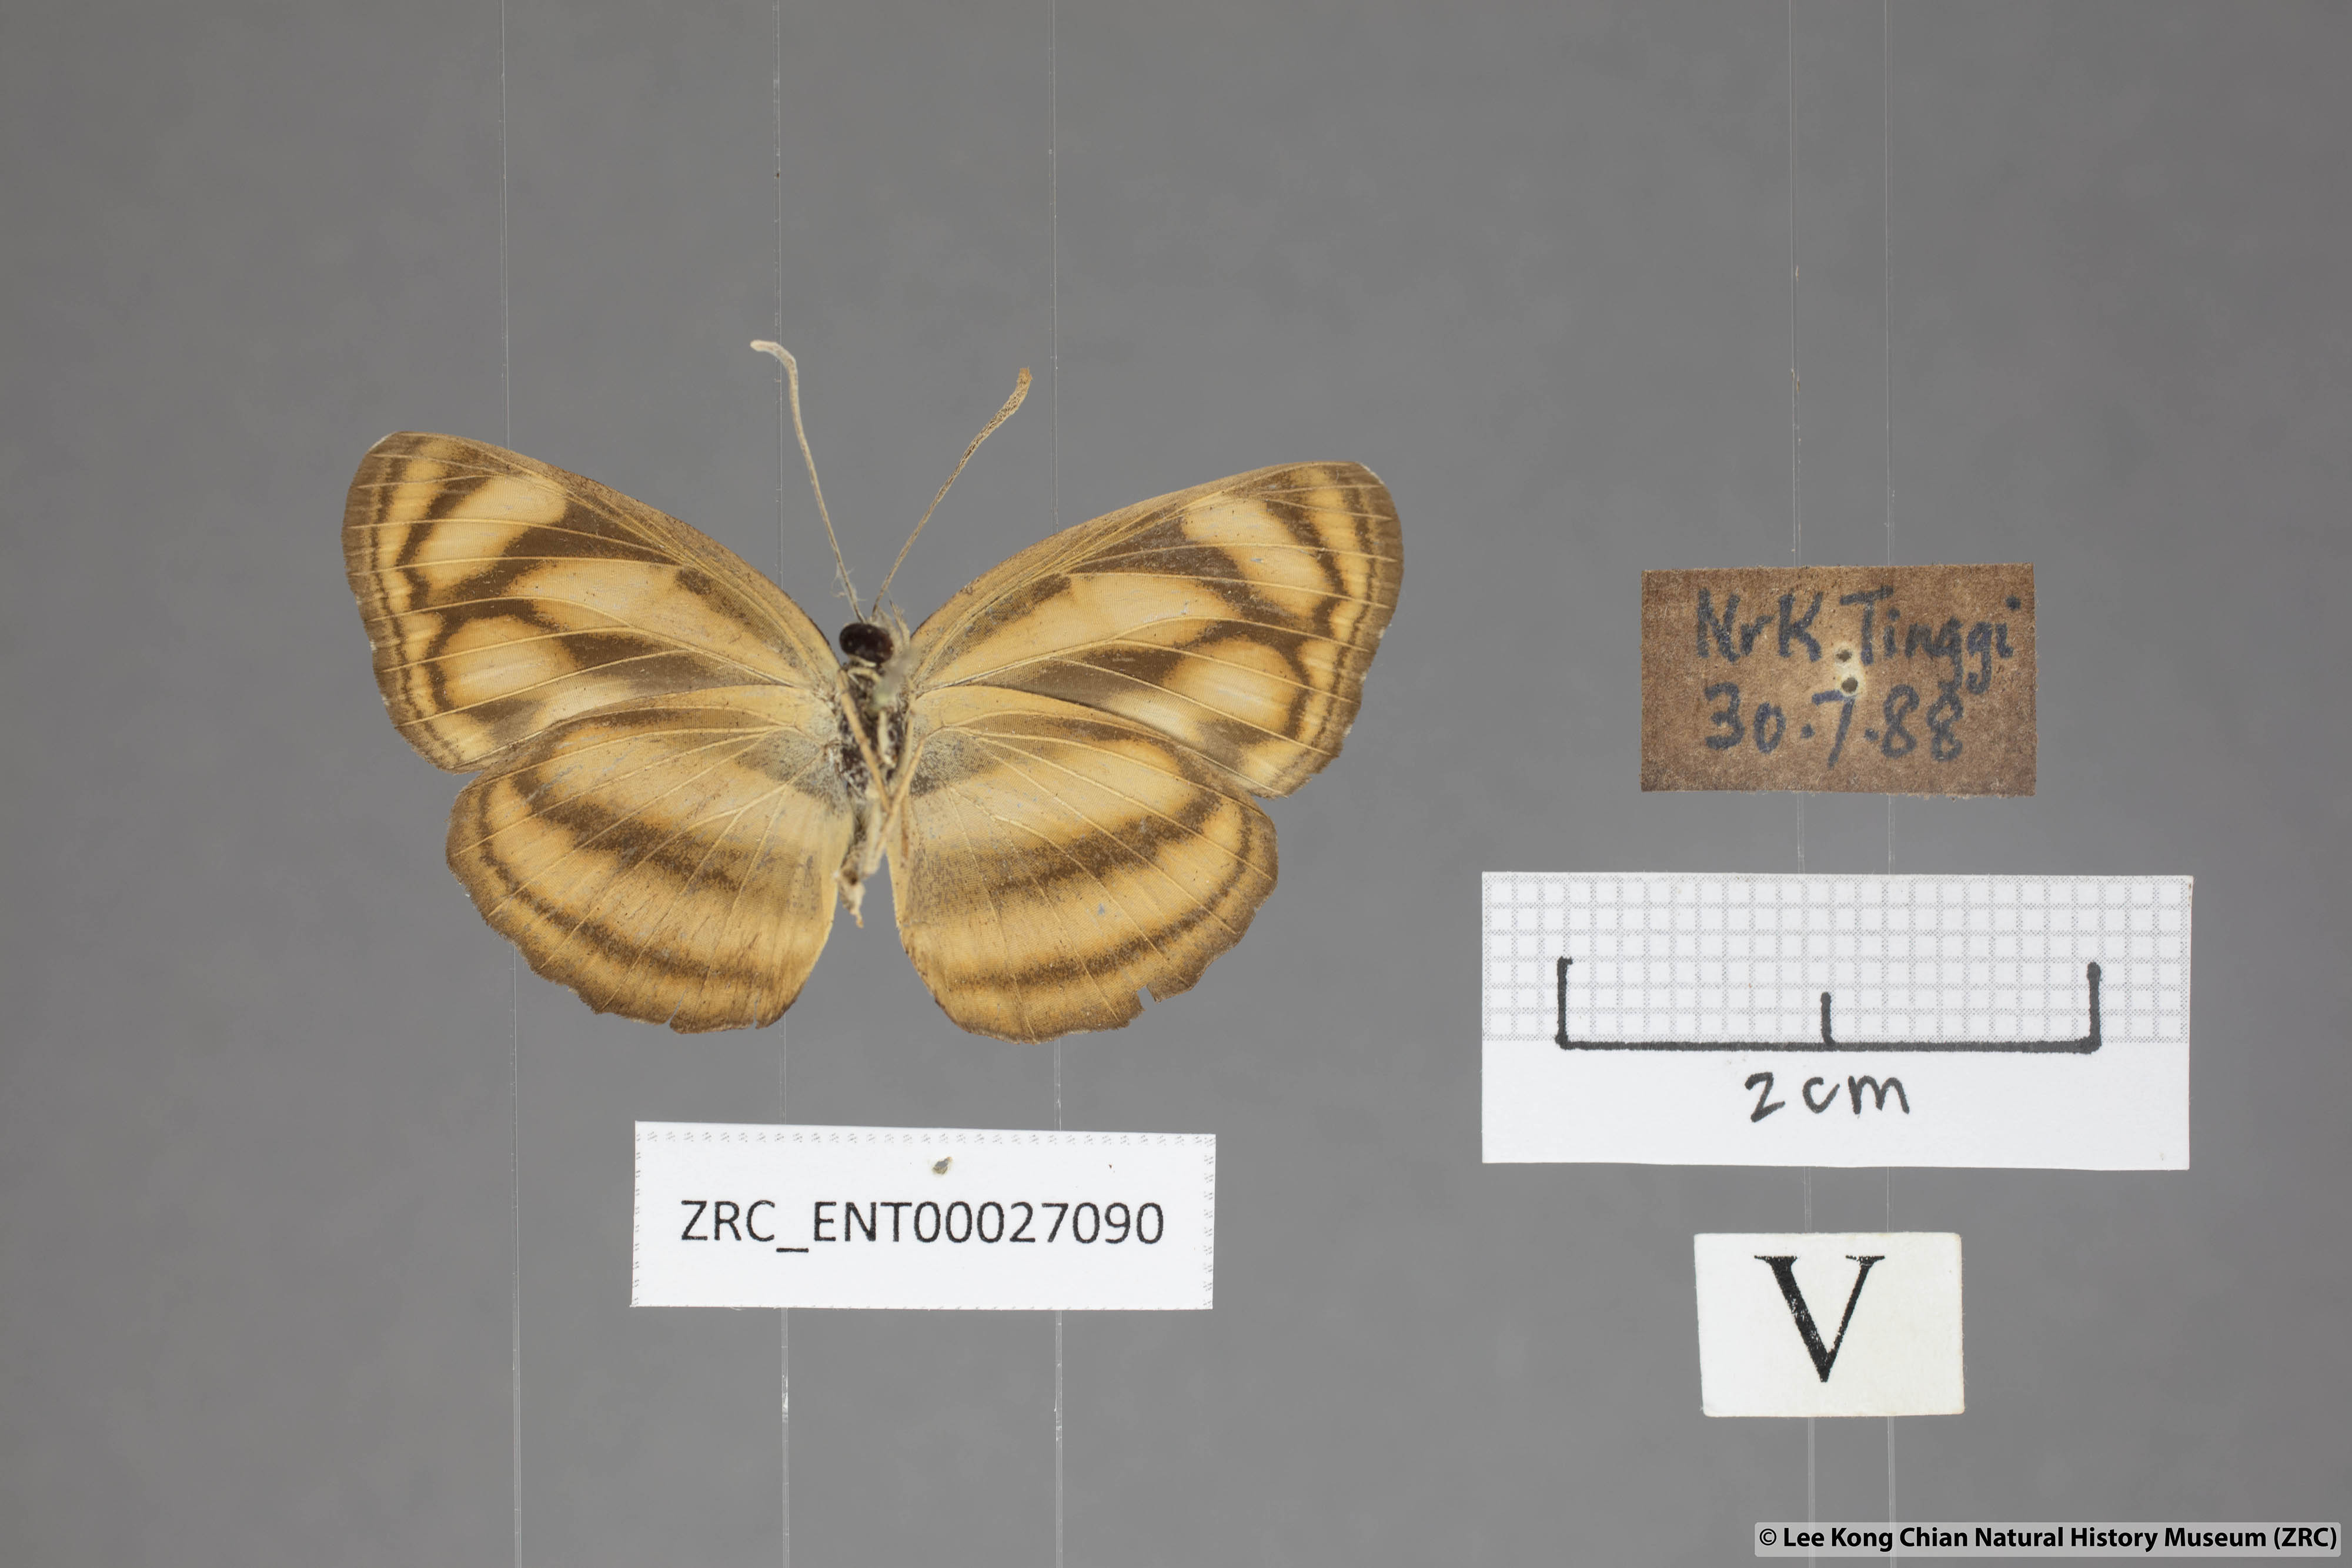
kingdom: Animalia
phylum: Arthropoda
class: Insecta
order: Lepidoptera
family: Nymphalidae
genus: Lasippa
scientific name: Lasippa tiga
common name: Malayan lascar
